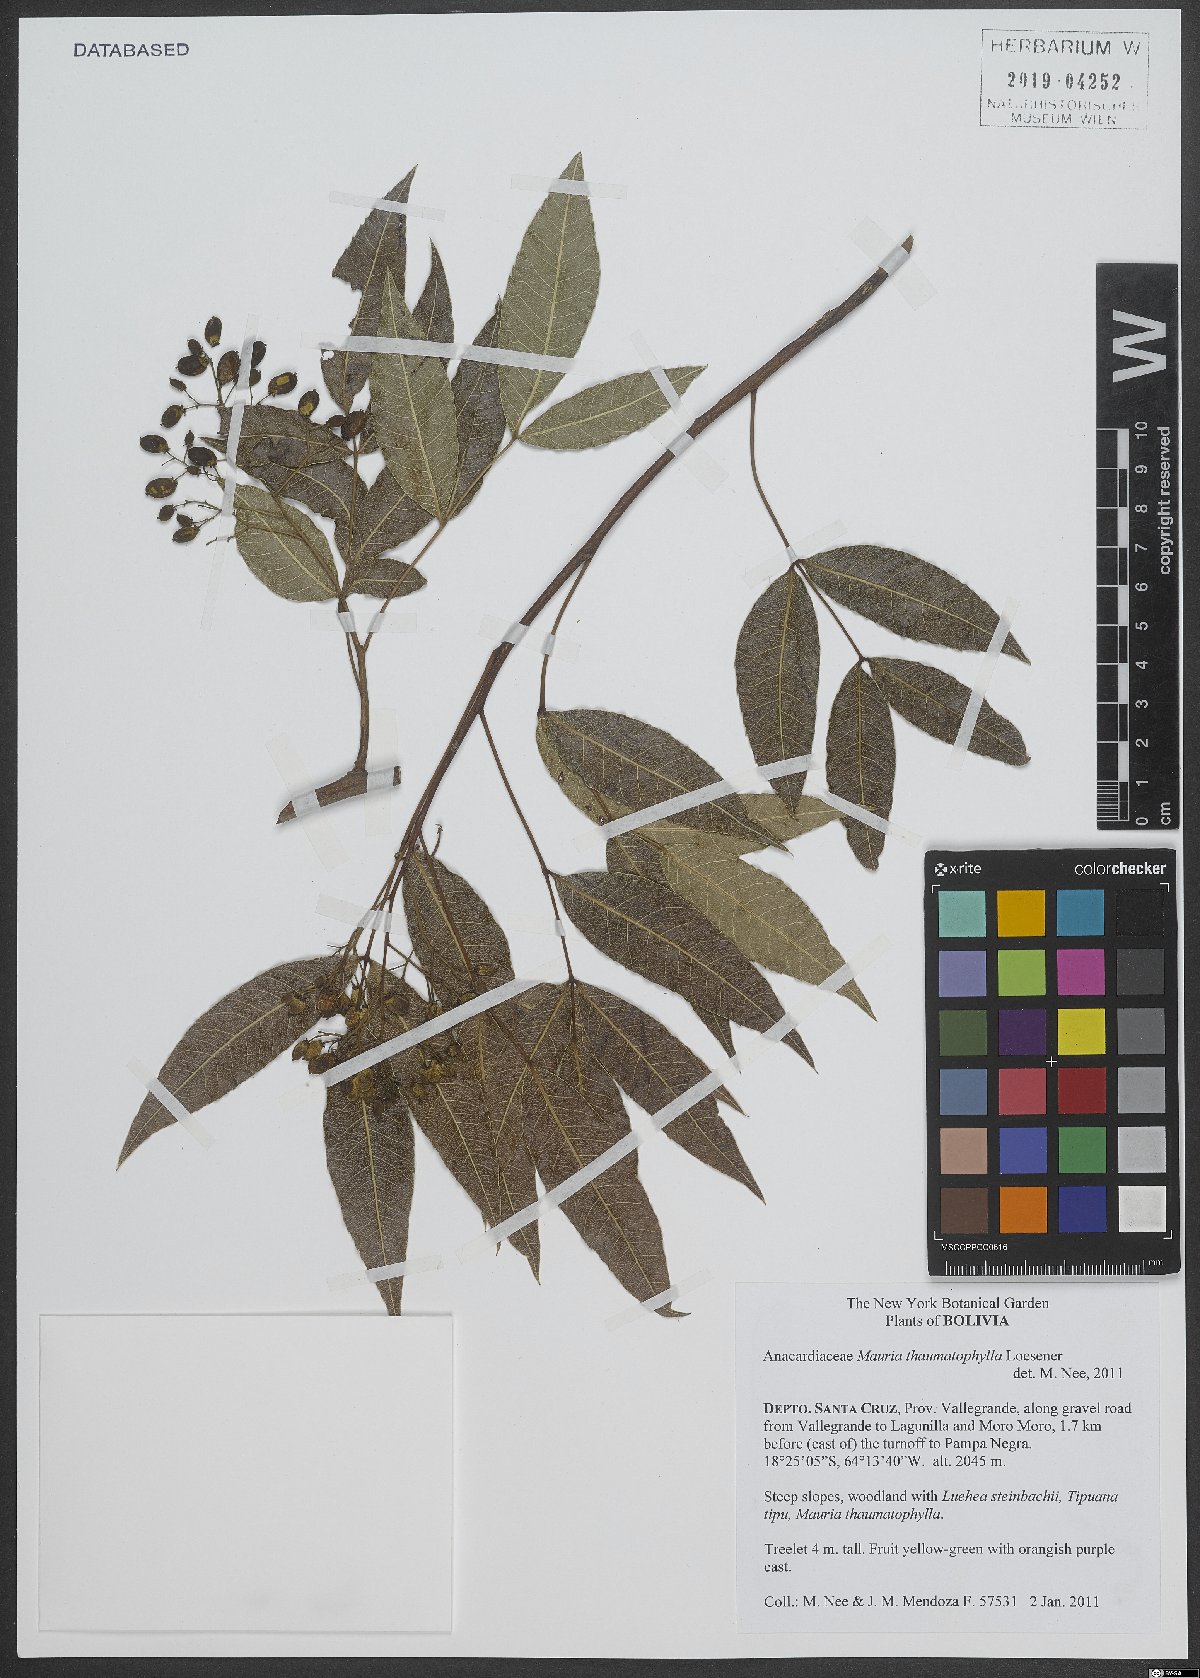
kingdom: Plantae
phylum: Tracheophyta
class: Magnoliopsida
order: Sapindales
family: Anacardiaceae
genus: Mauria
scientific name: Mauria thaumatophylla
